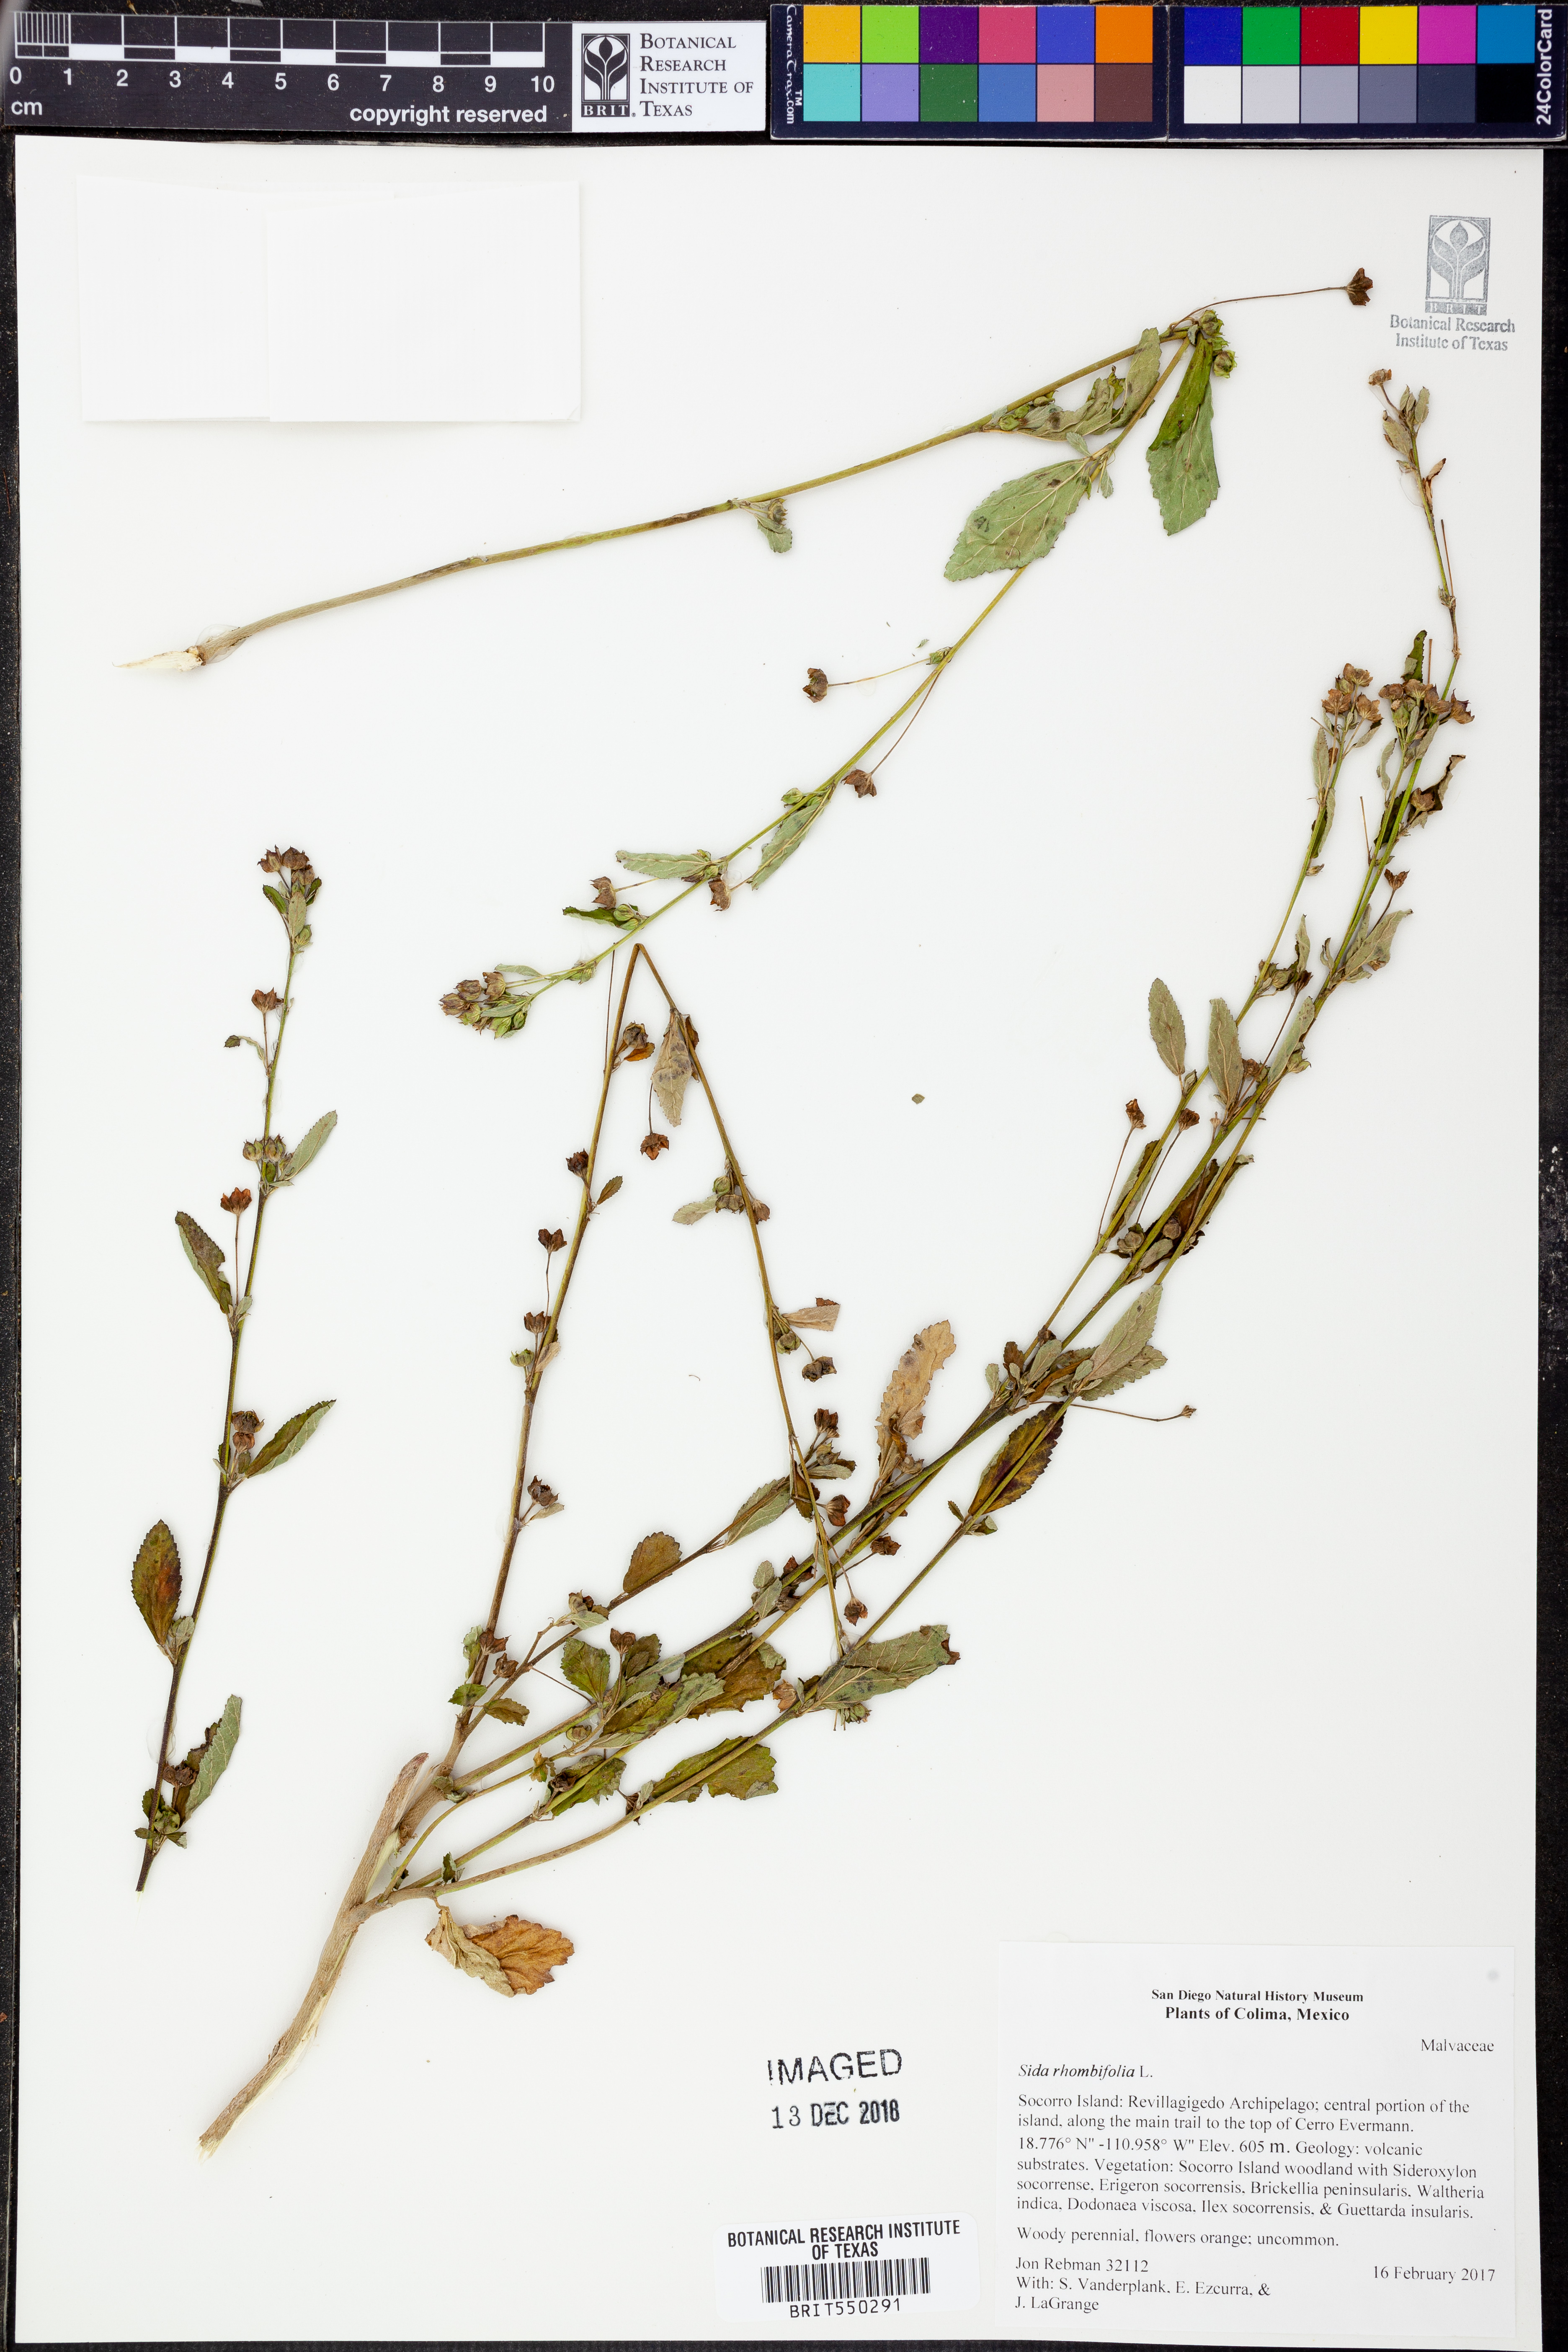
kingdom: Plantae
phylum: Tracheophyta
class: Magnoliopsida
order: Malvales
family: Malvaceae
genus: Sida
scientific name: Sida rhombifolia
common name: Queensland-hemp
